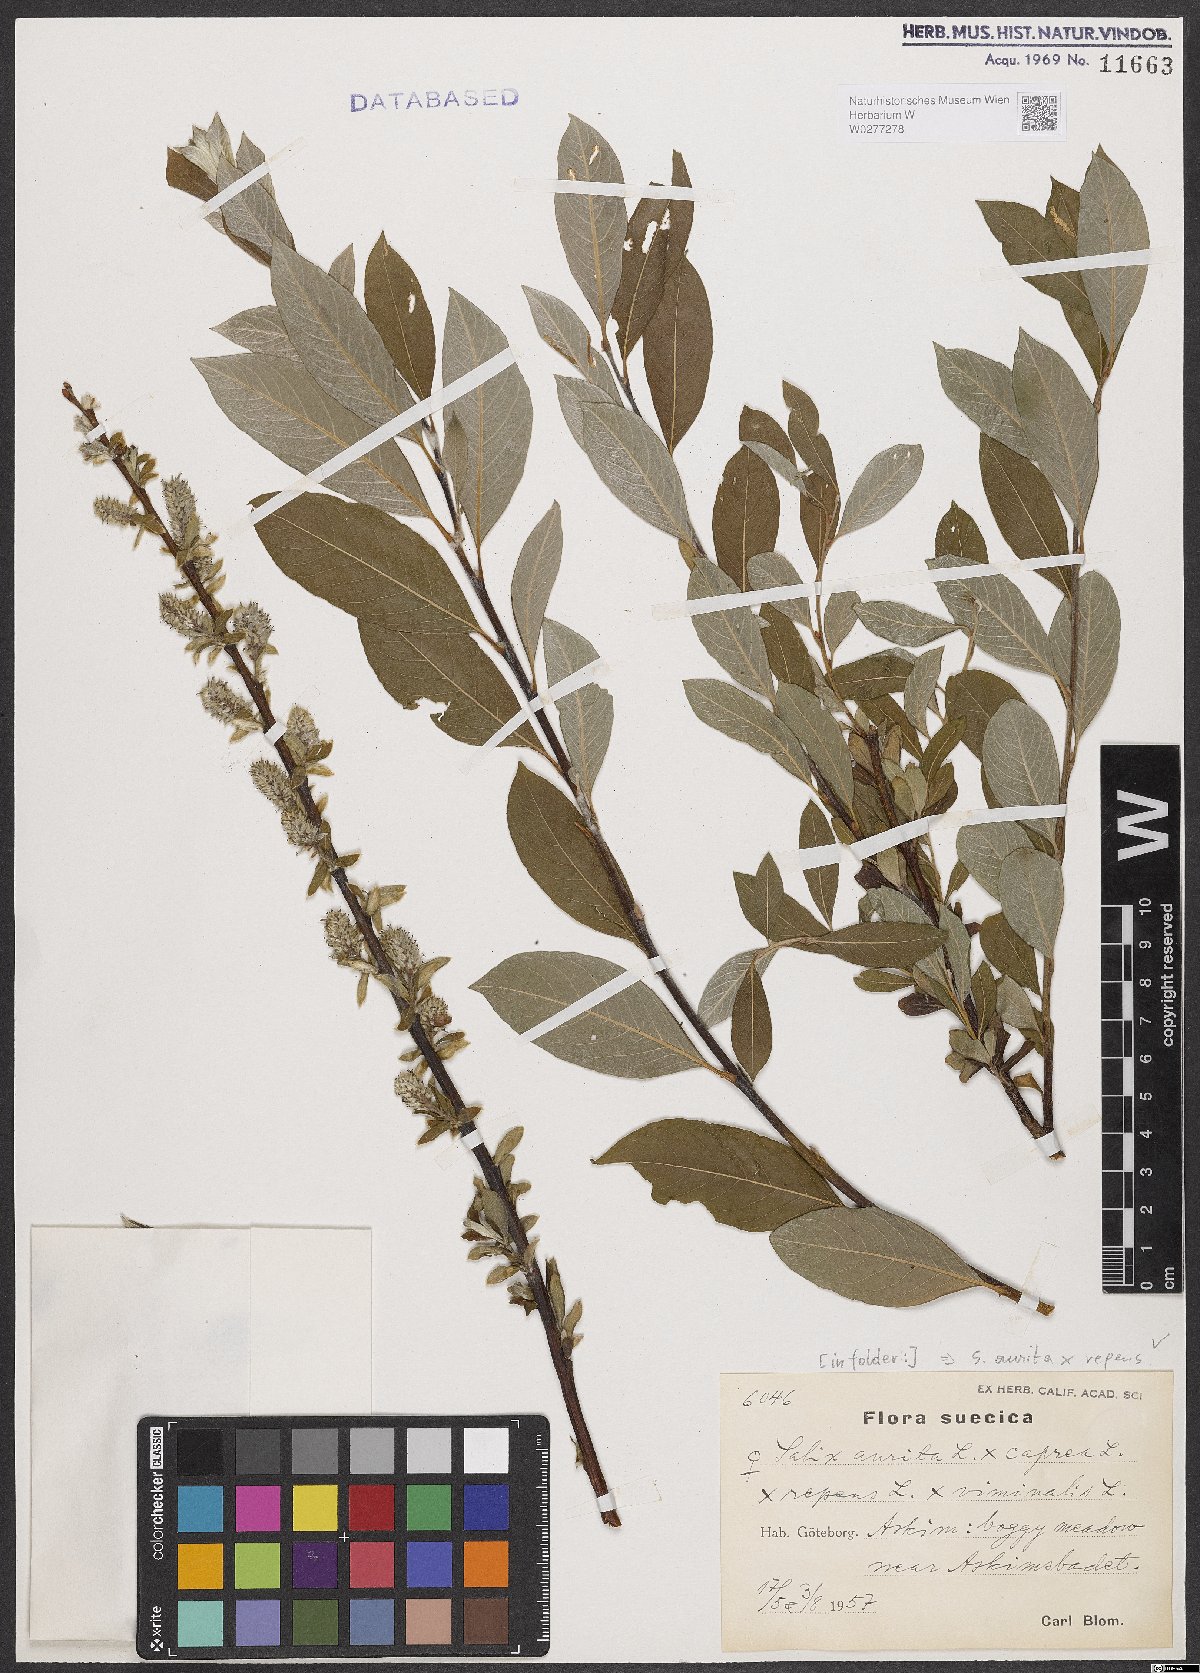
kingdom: Plantae
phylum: Tracheophyta
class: Magnoliopsida
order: Malpighiales
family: Salicaceae
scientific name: Salicaceae
